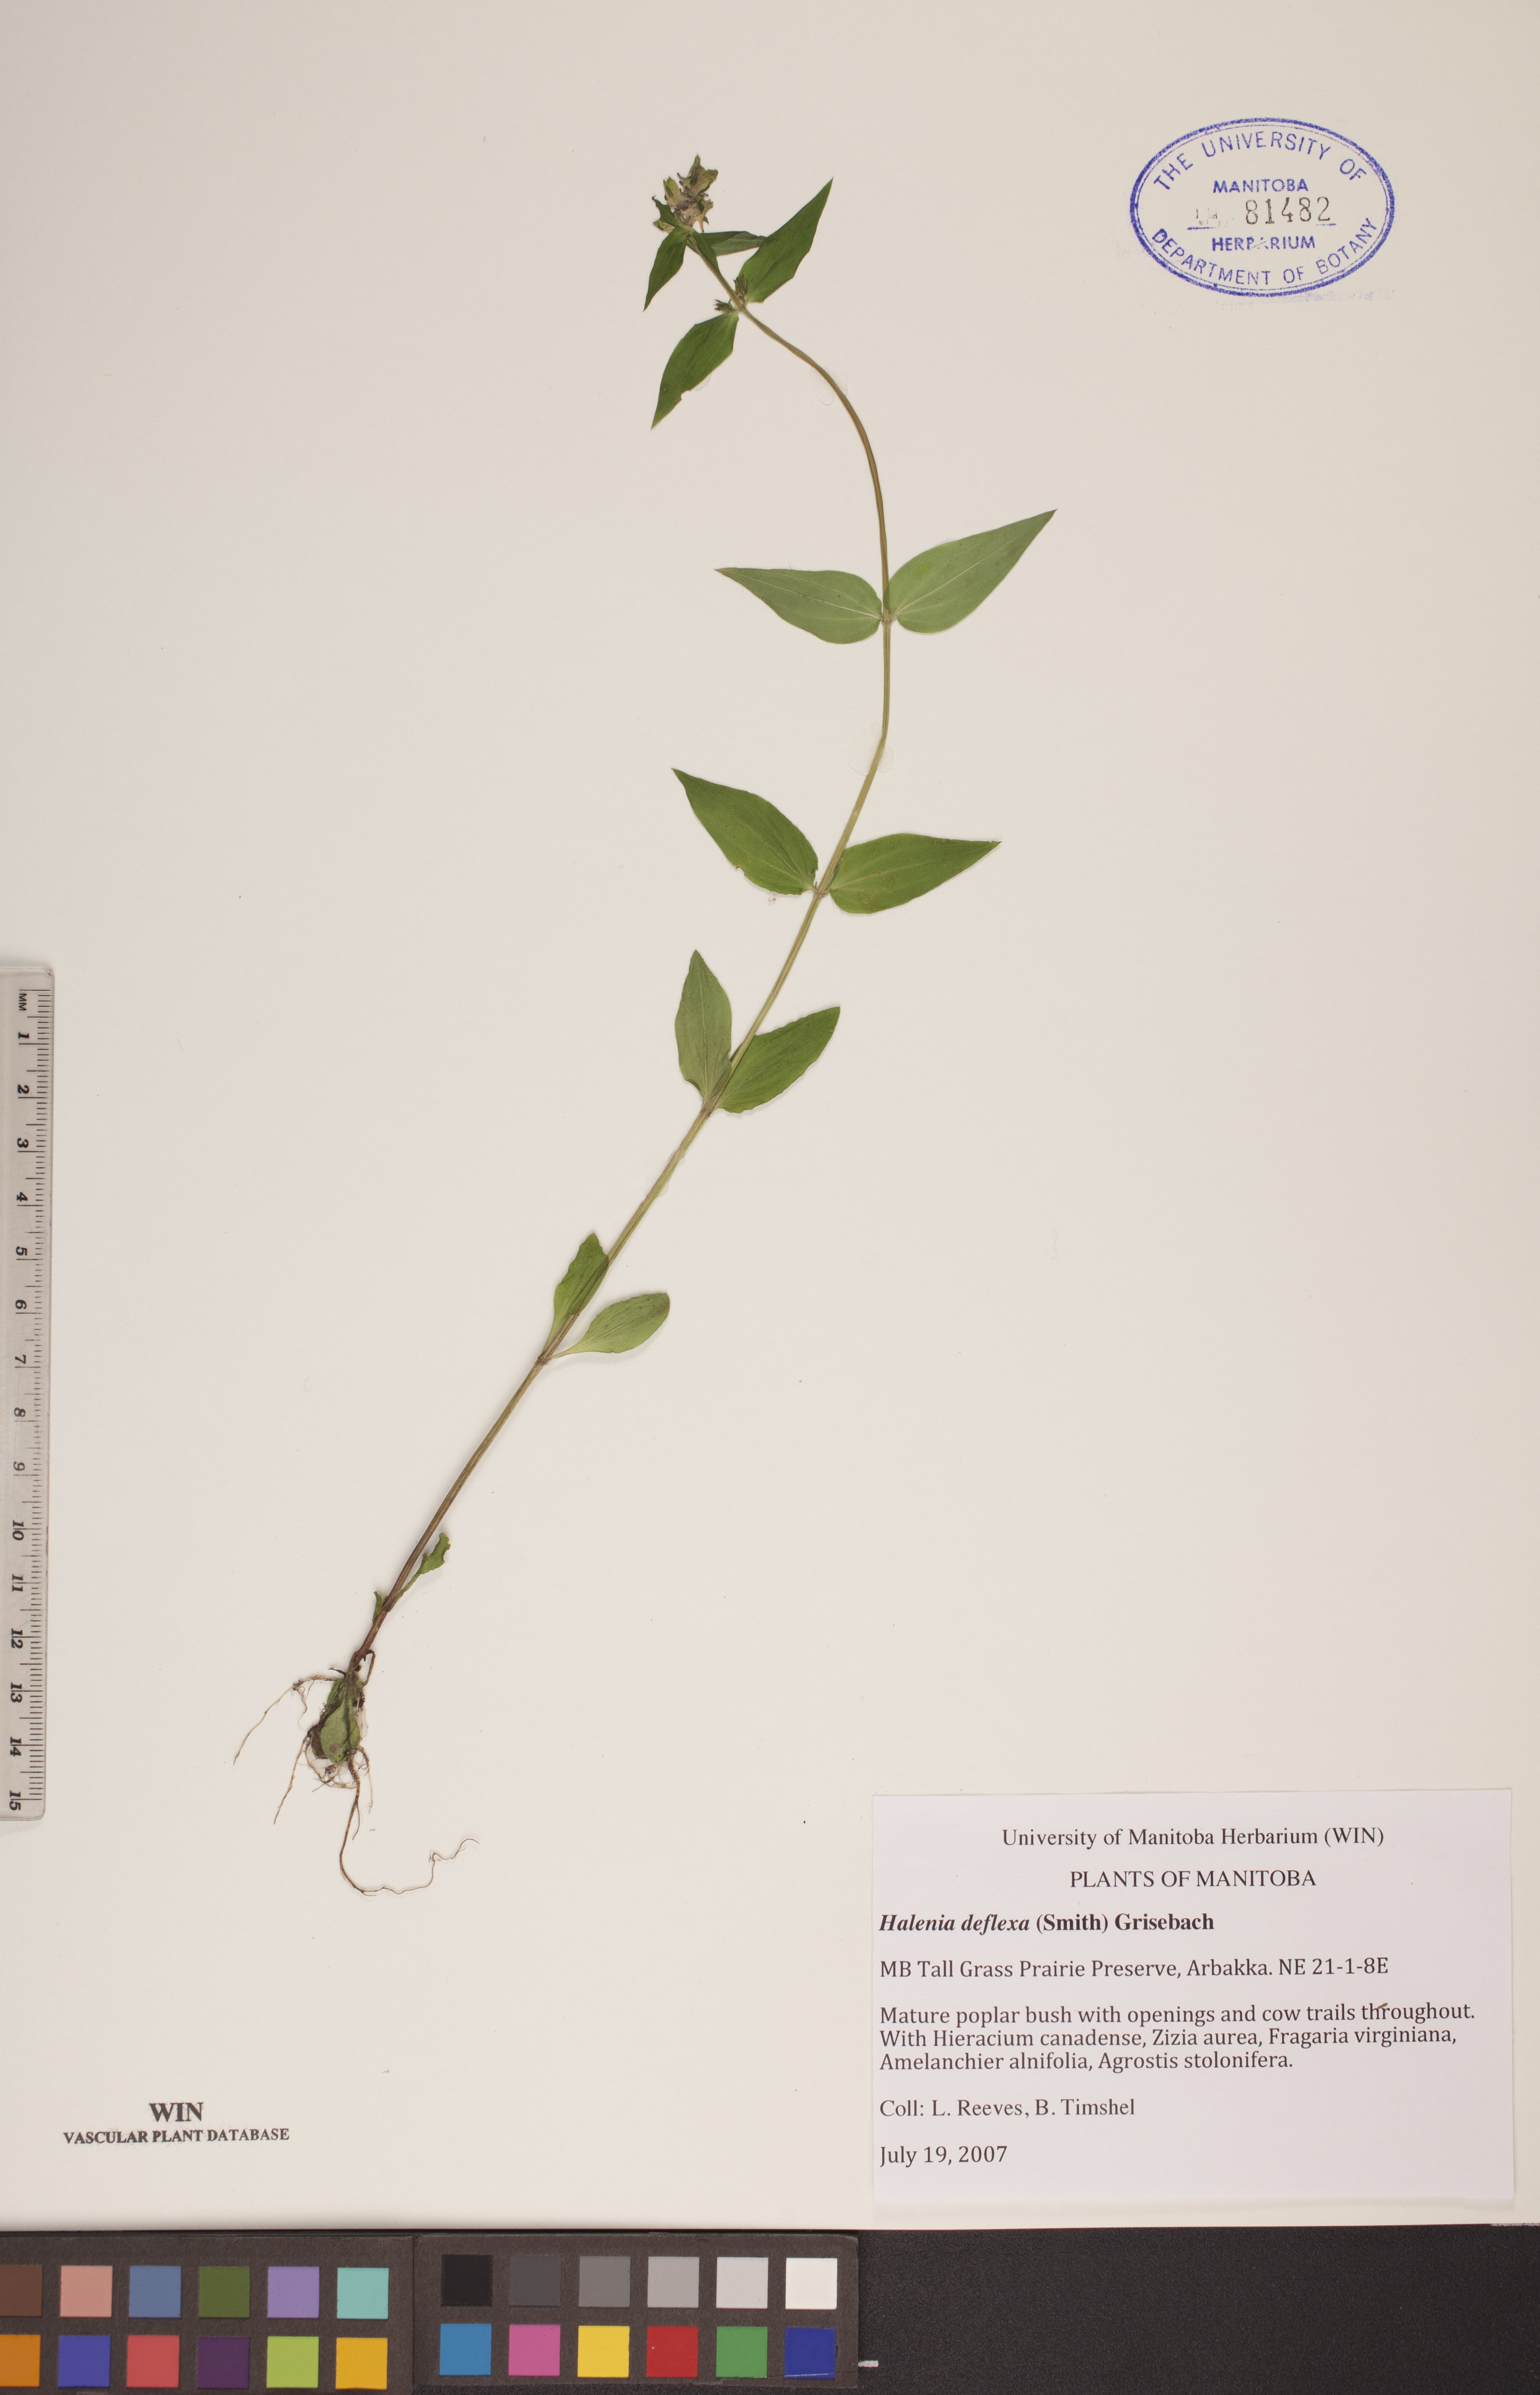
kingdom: Plantae
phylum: Tracheophyta
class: Magnoliopsida
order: Gentianales
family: Gentianaceae
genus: Halenia
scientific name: Halenia deflexa
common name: American spurred gentian
